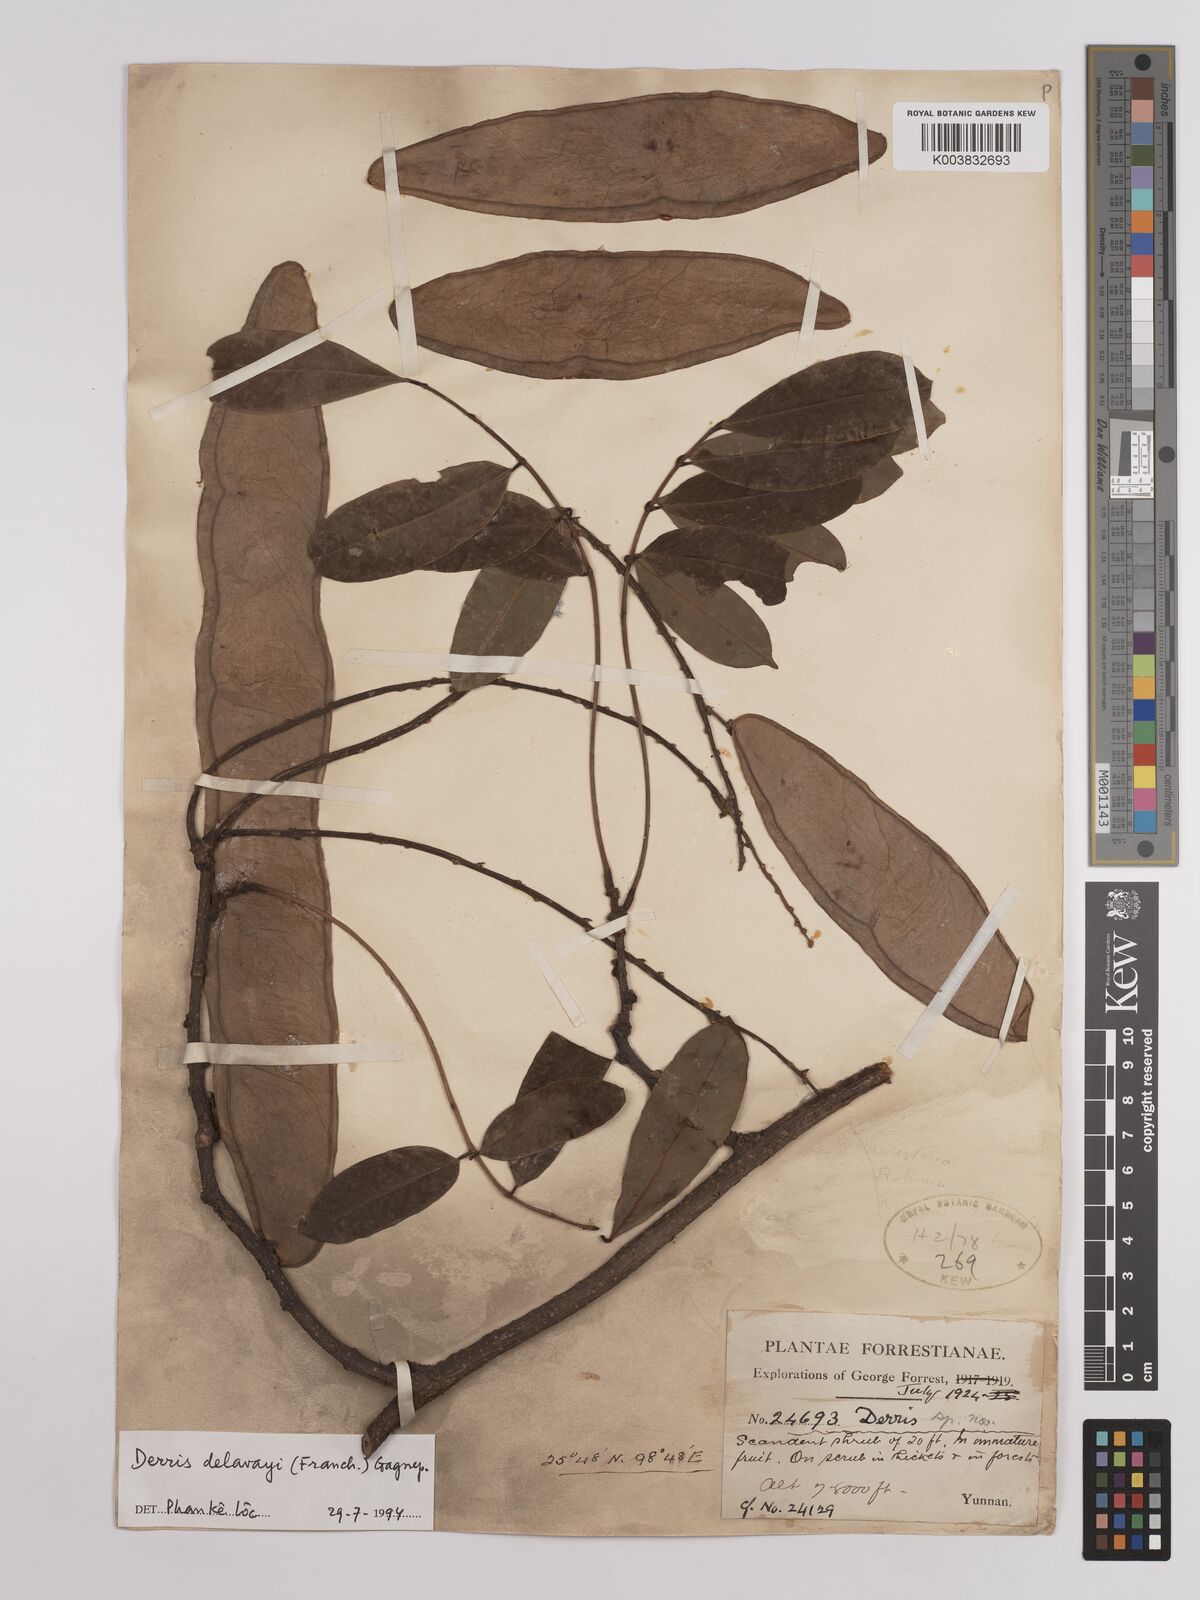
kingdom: Plantae
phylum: Tracheophyta
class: Magnoliopsida
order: Fabales
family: Fabaceae
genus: Derris
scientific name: Derris
